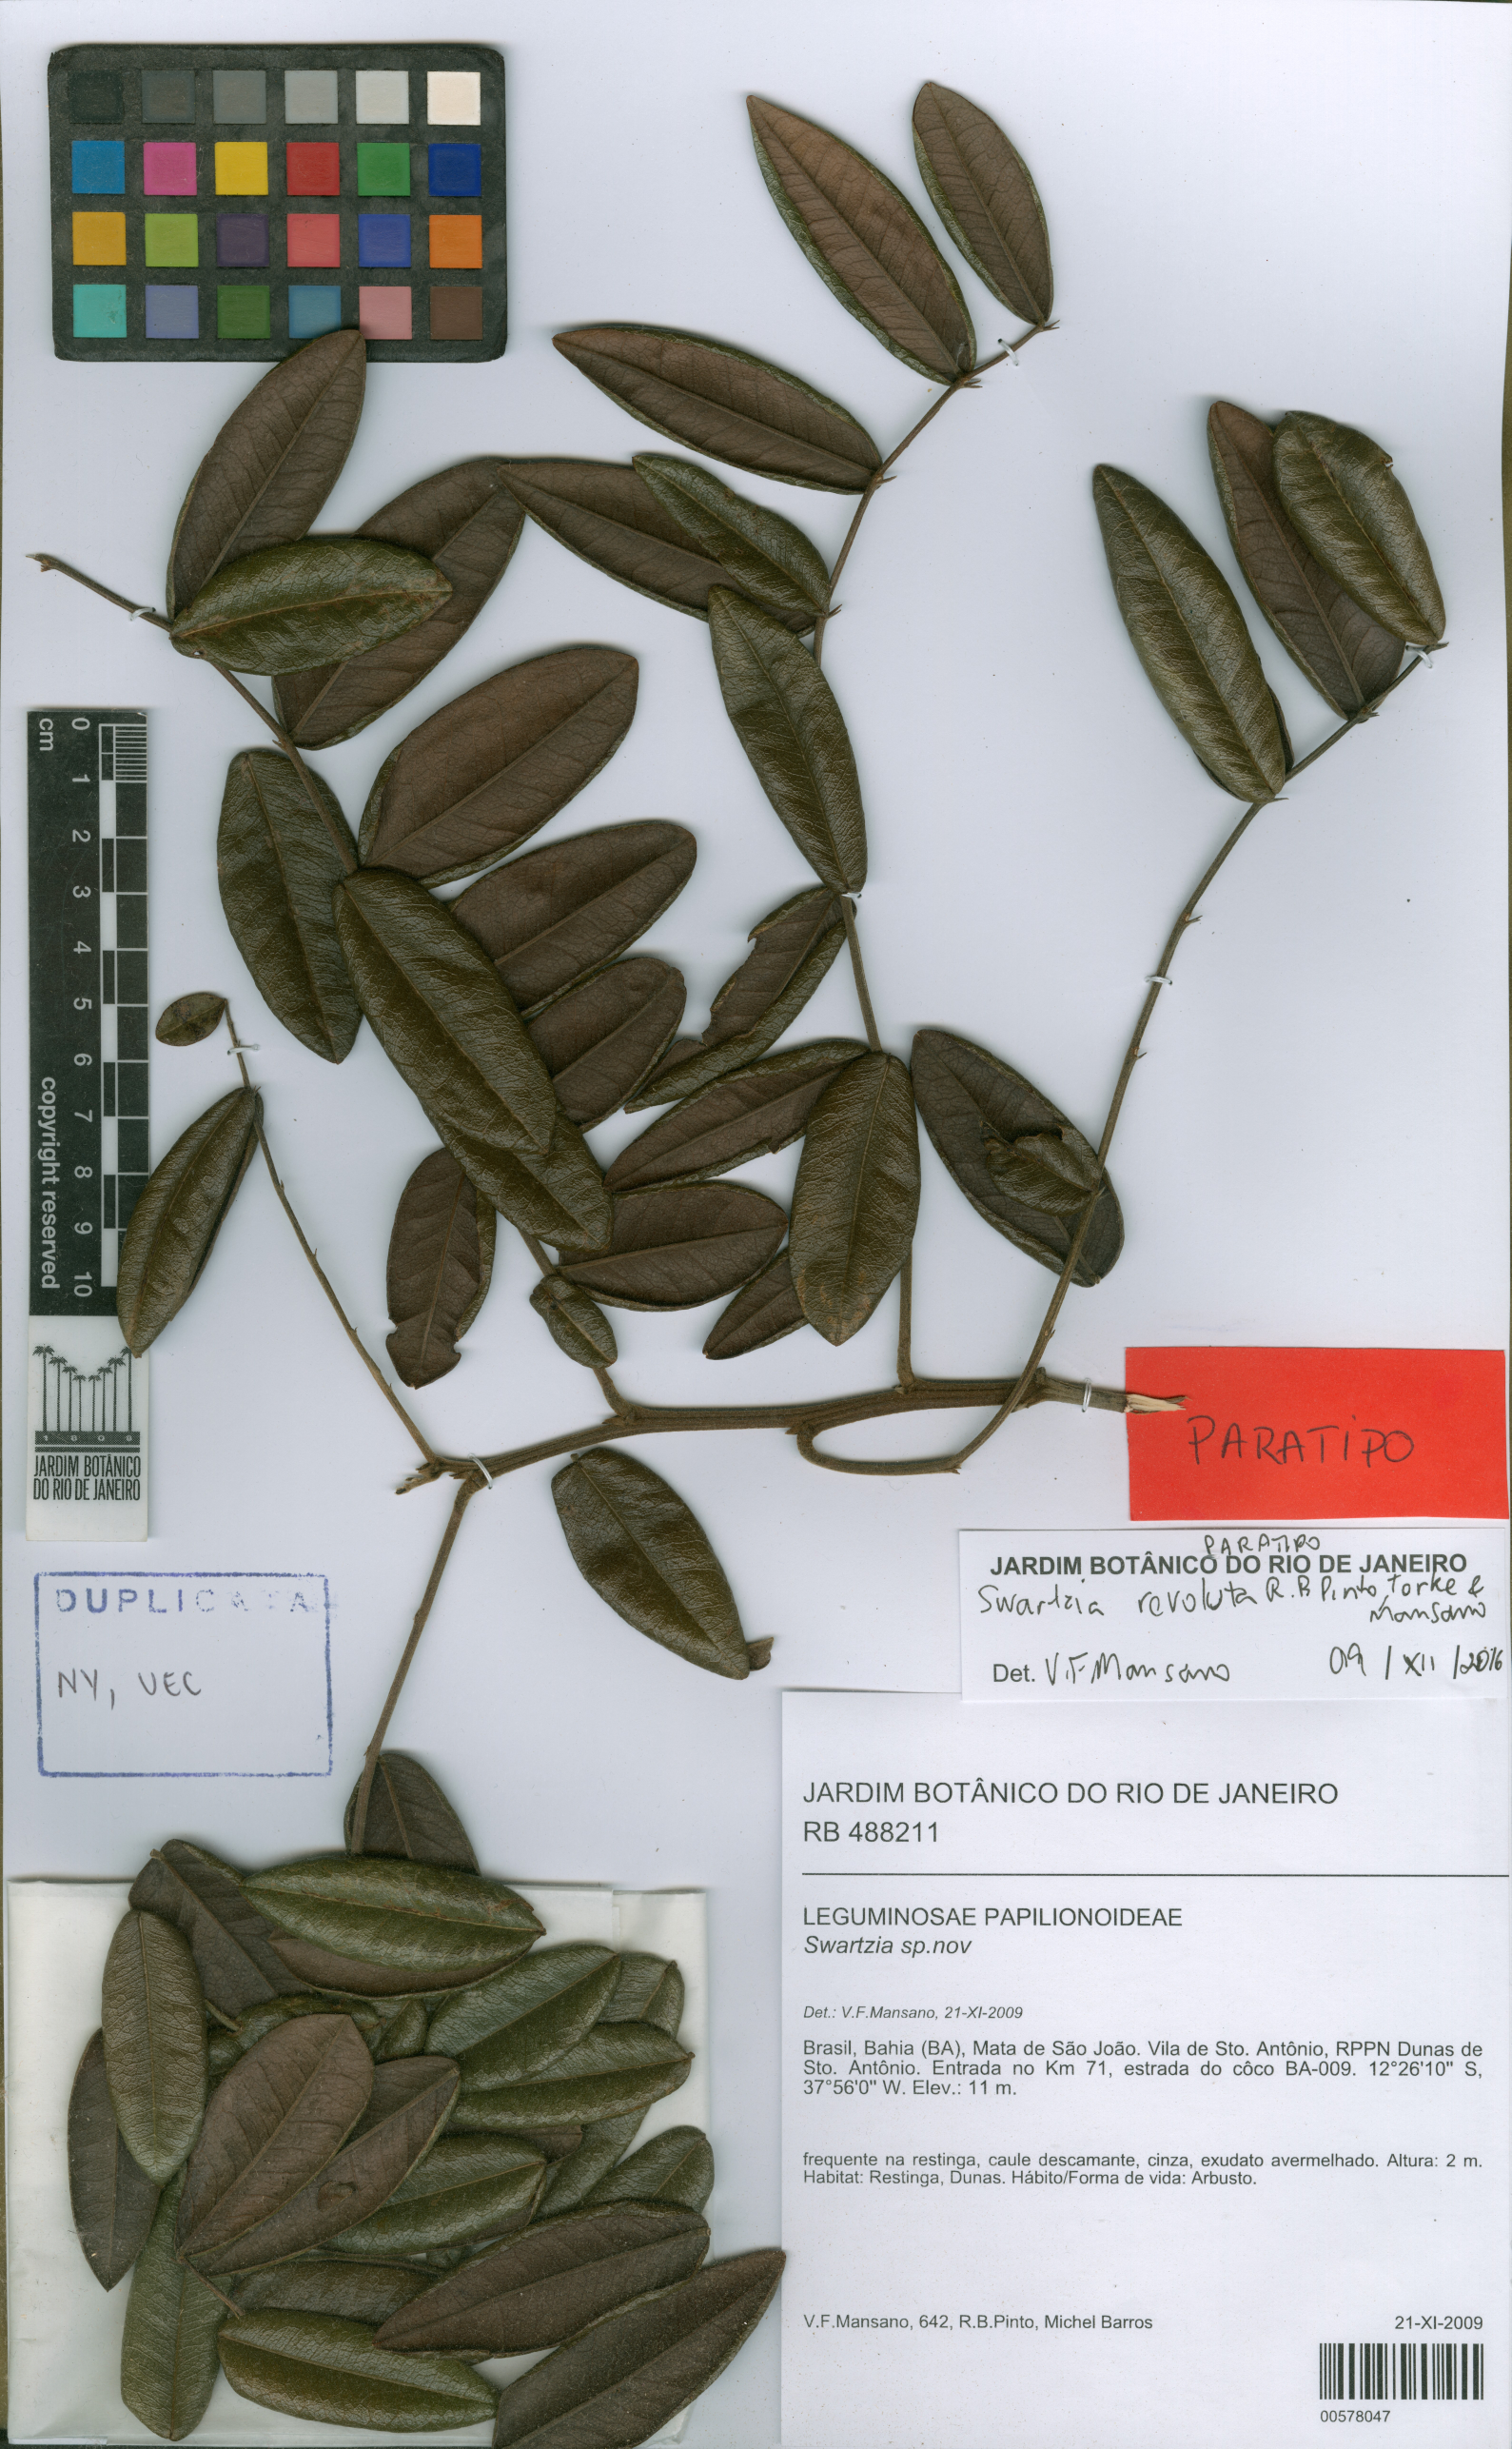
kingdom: Plantae
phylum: Tracheophyta
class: Magnoliopsida
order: Fabales
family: Fabaceae
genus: Swartzia
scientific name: Swartzia revoluta
